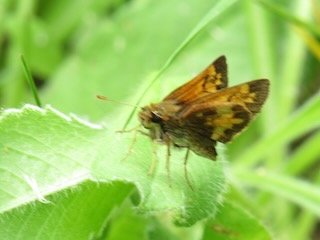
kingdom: Animalia
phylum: Arthropoda
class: Insecta
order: Lepidoptera
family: Hesperiidae
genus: Lon
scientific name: Lon hobomok
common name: Hobomok Skipper
